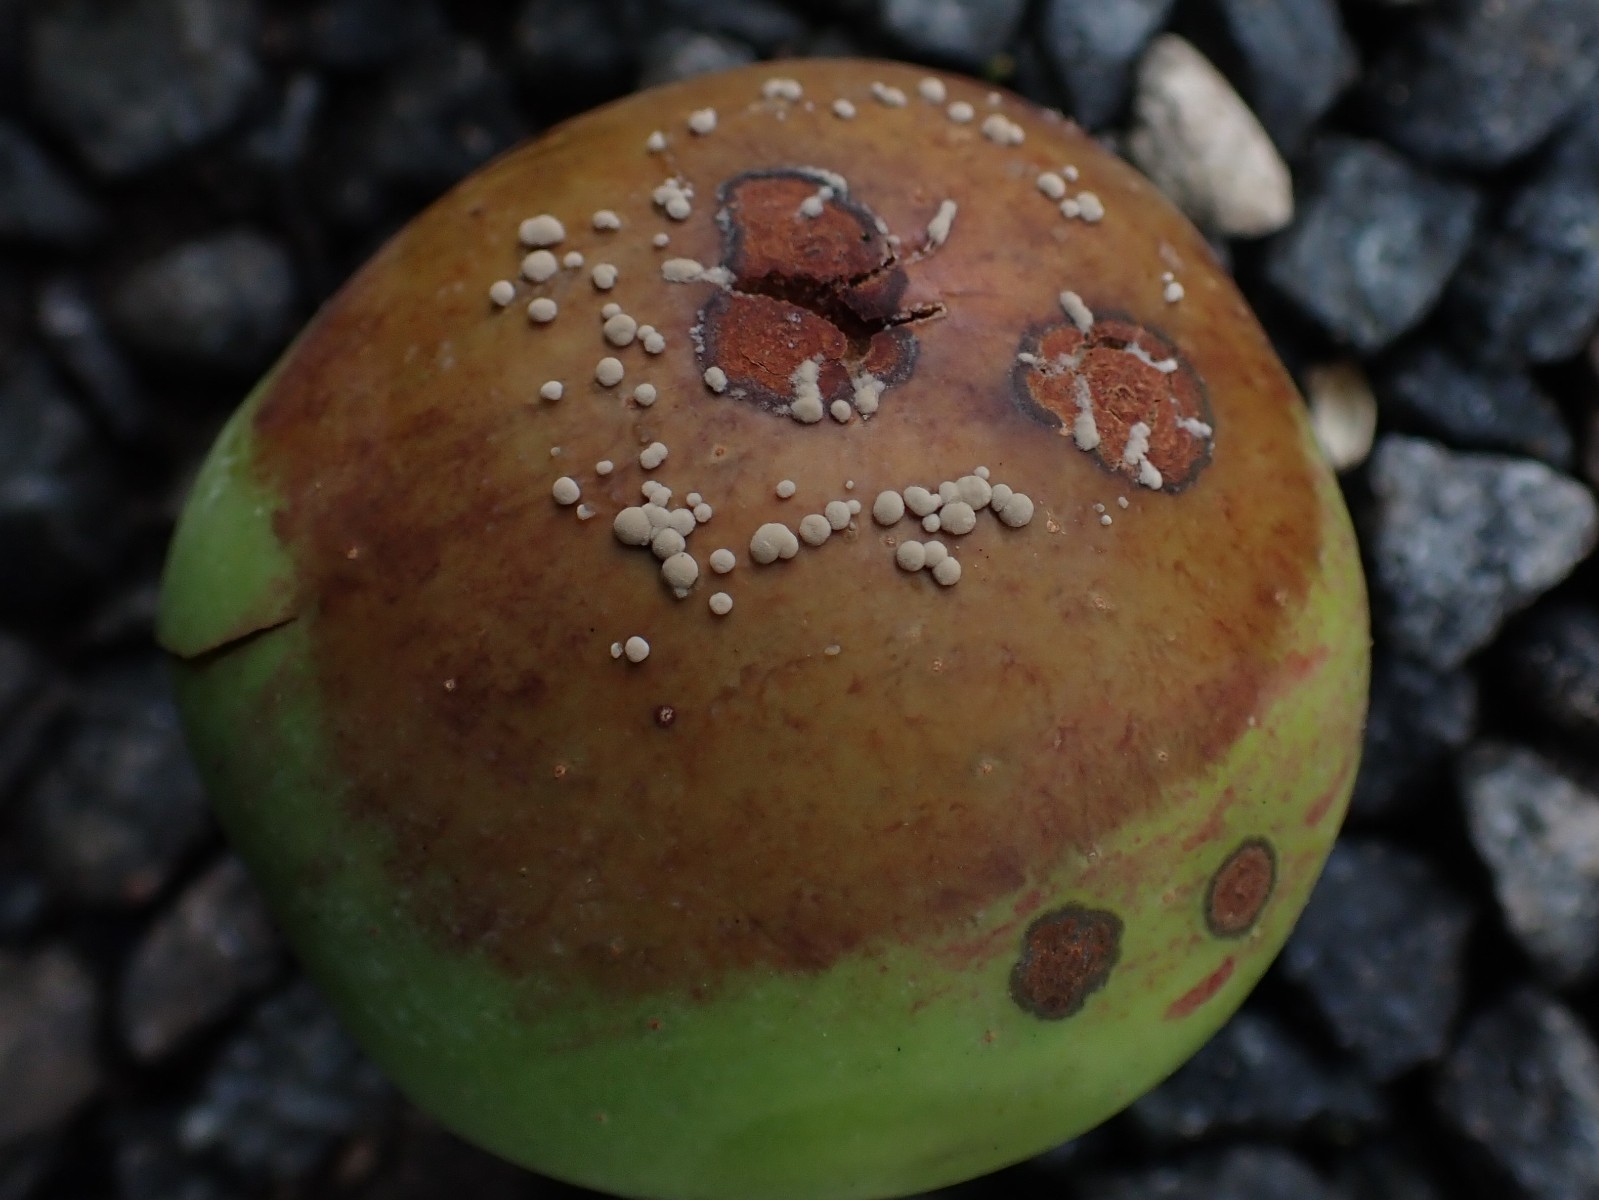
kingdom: Fungi
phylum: Ascomycota
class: Leotiomycetes
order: Helotiales
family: Sclerotiniaceae
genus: Monilinia
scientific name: Monilinia fructigena
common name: æble-knoldskive
